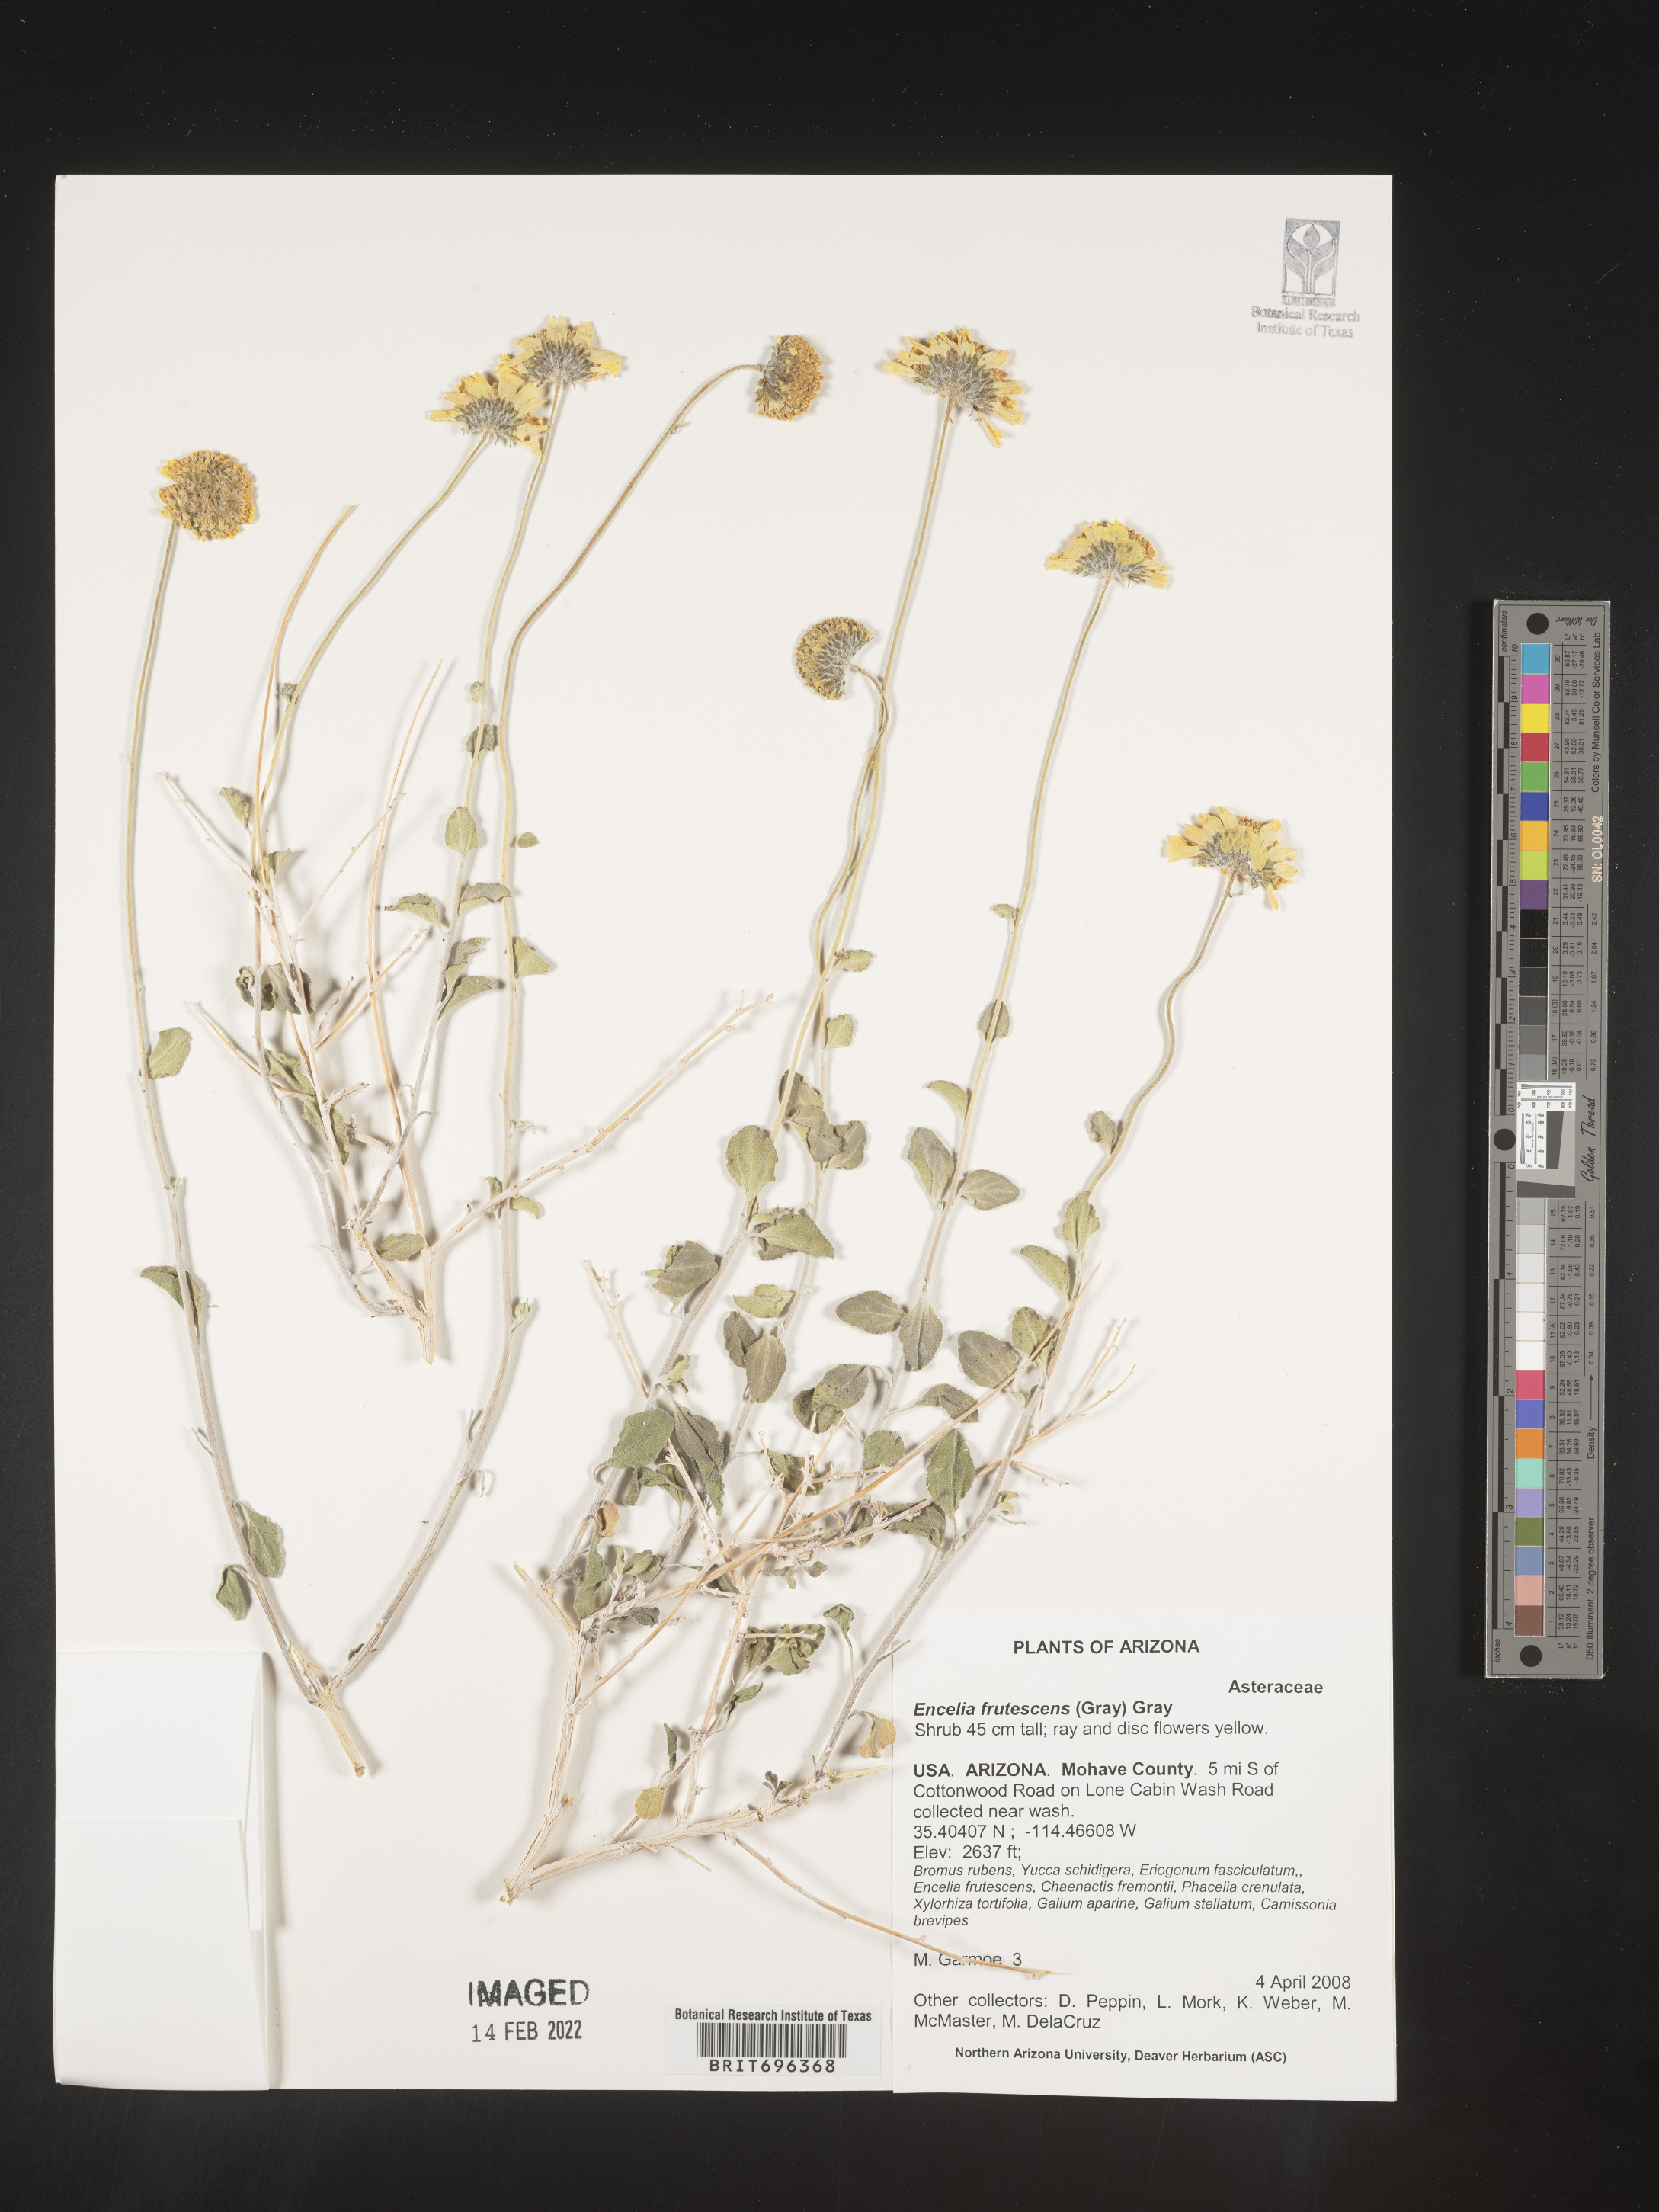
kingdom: Plantae
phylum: Tracheophyta
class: Magnoliopsida
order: Asterales
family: Asteraceae
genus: Encelia
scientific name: Encelia frutescens
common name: Bush encelia
